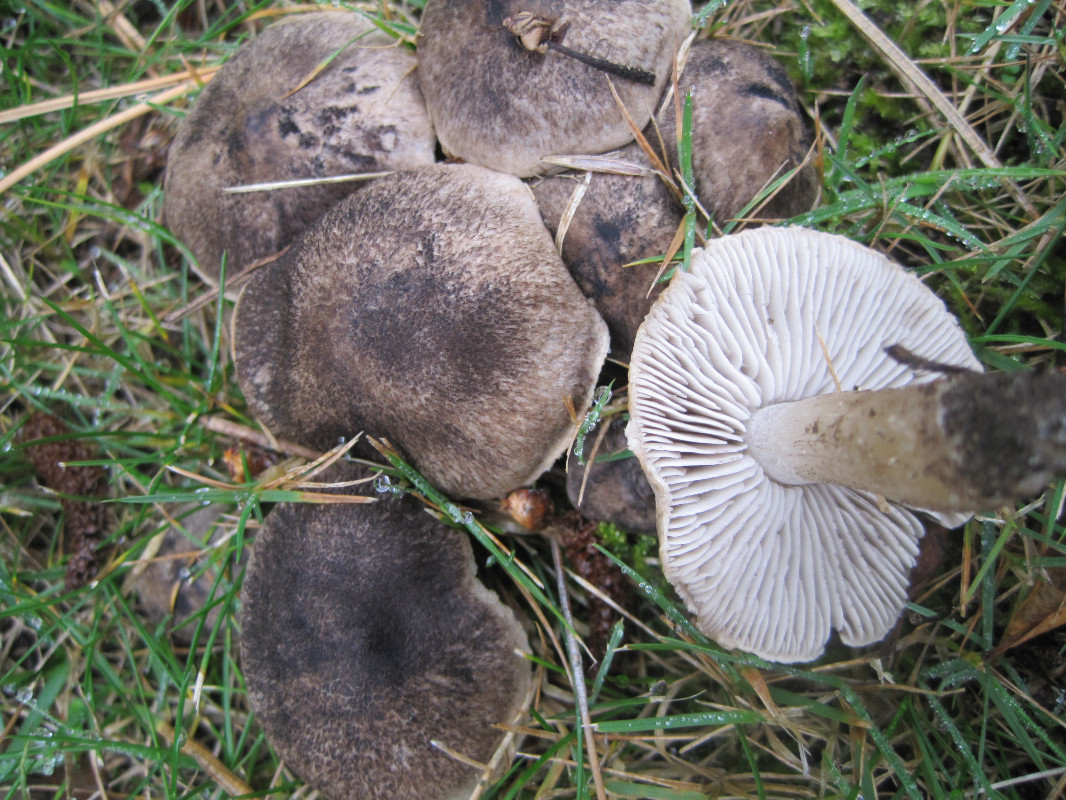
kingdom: Fungi
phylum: Basidiomycota
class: Agaricomycetes
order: Agaricales
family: Tricholomataceae
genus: Tricholoma
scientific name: Tricholoma terreum
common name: jordfarvet ridderhat
